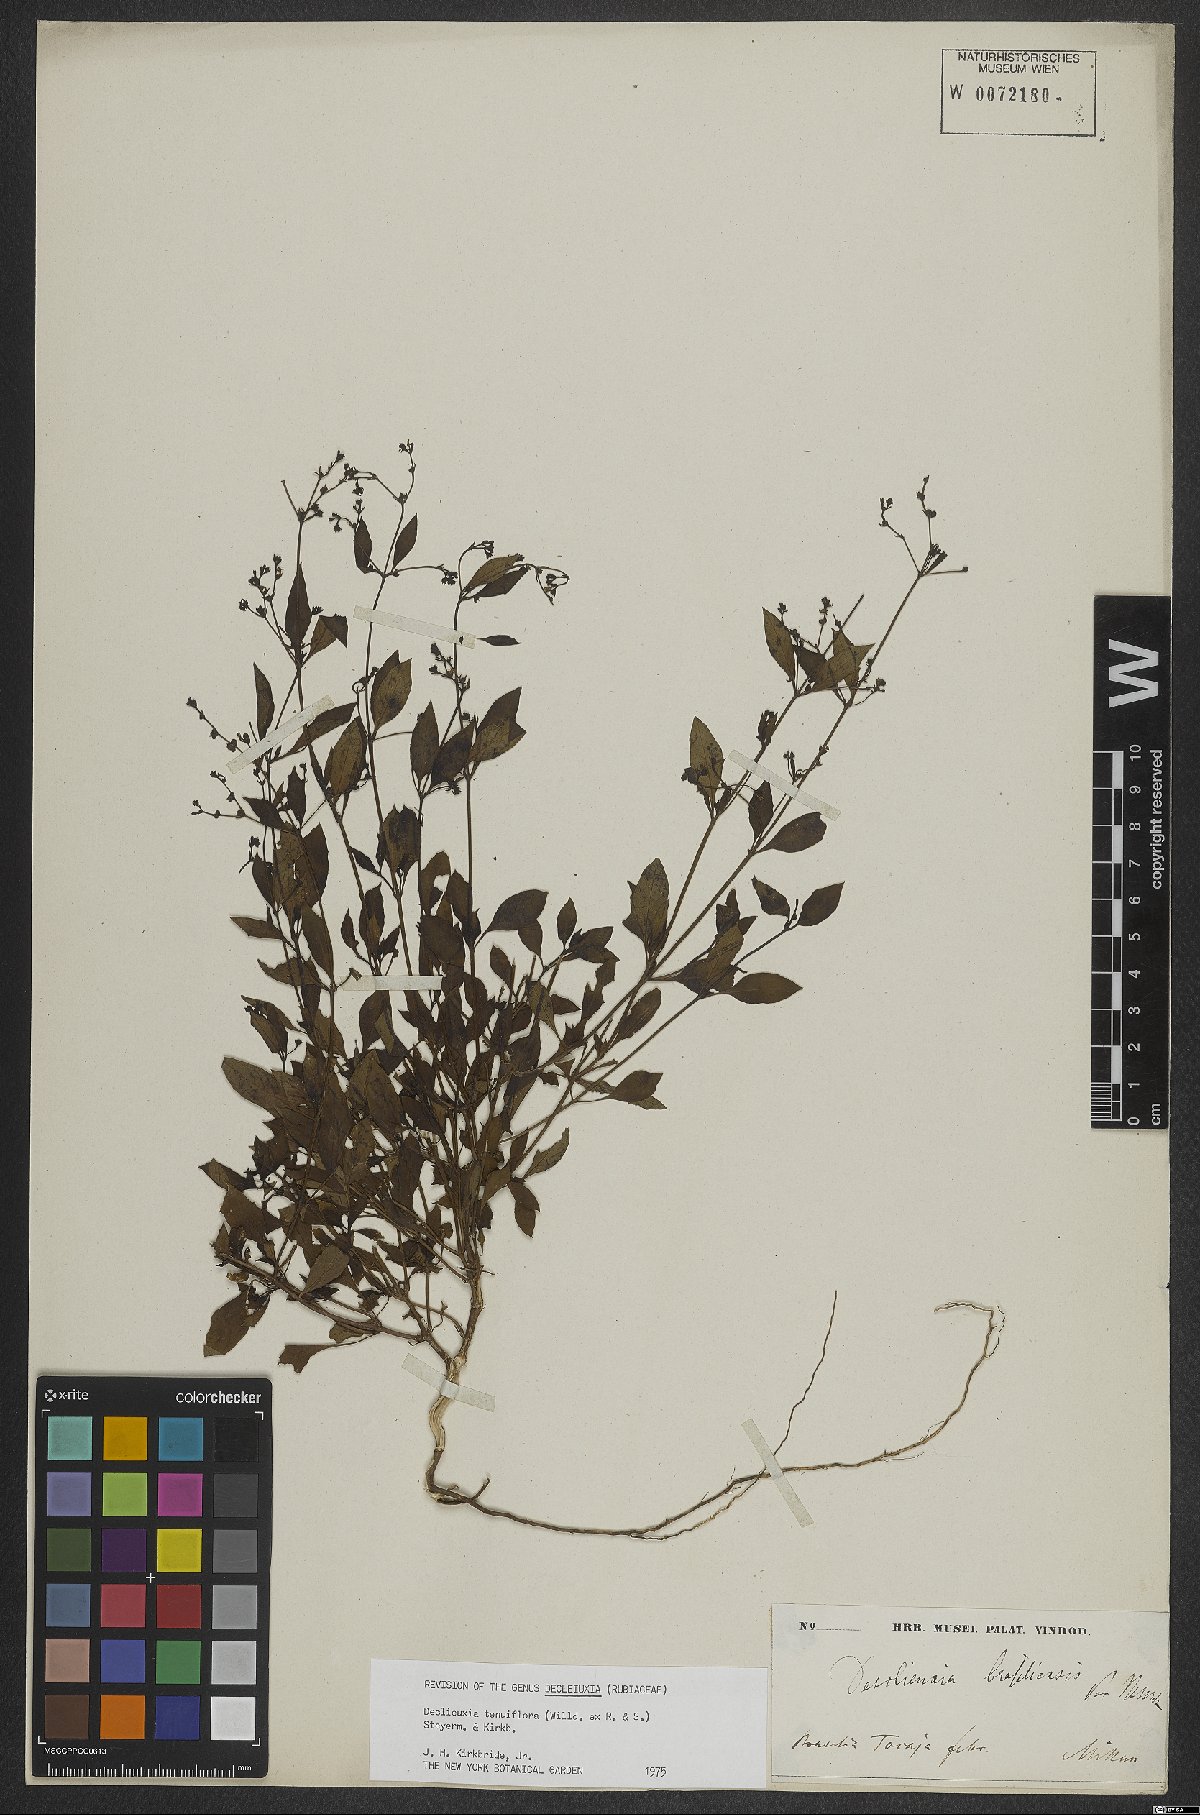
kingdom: Plantae
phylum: Tracheophyta
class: Magnoliopsida
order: Gentianales
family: Rubiaceae
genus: Declieuxia
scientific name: Declieuxia tenuiflora
